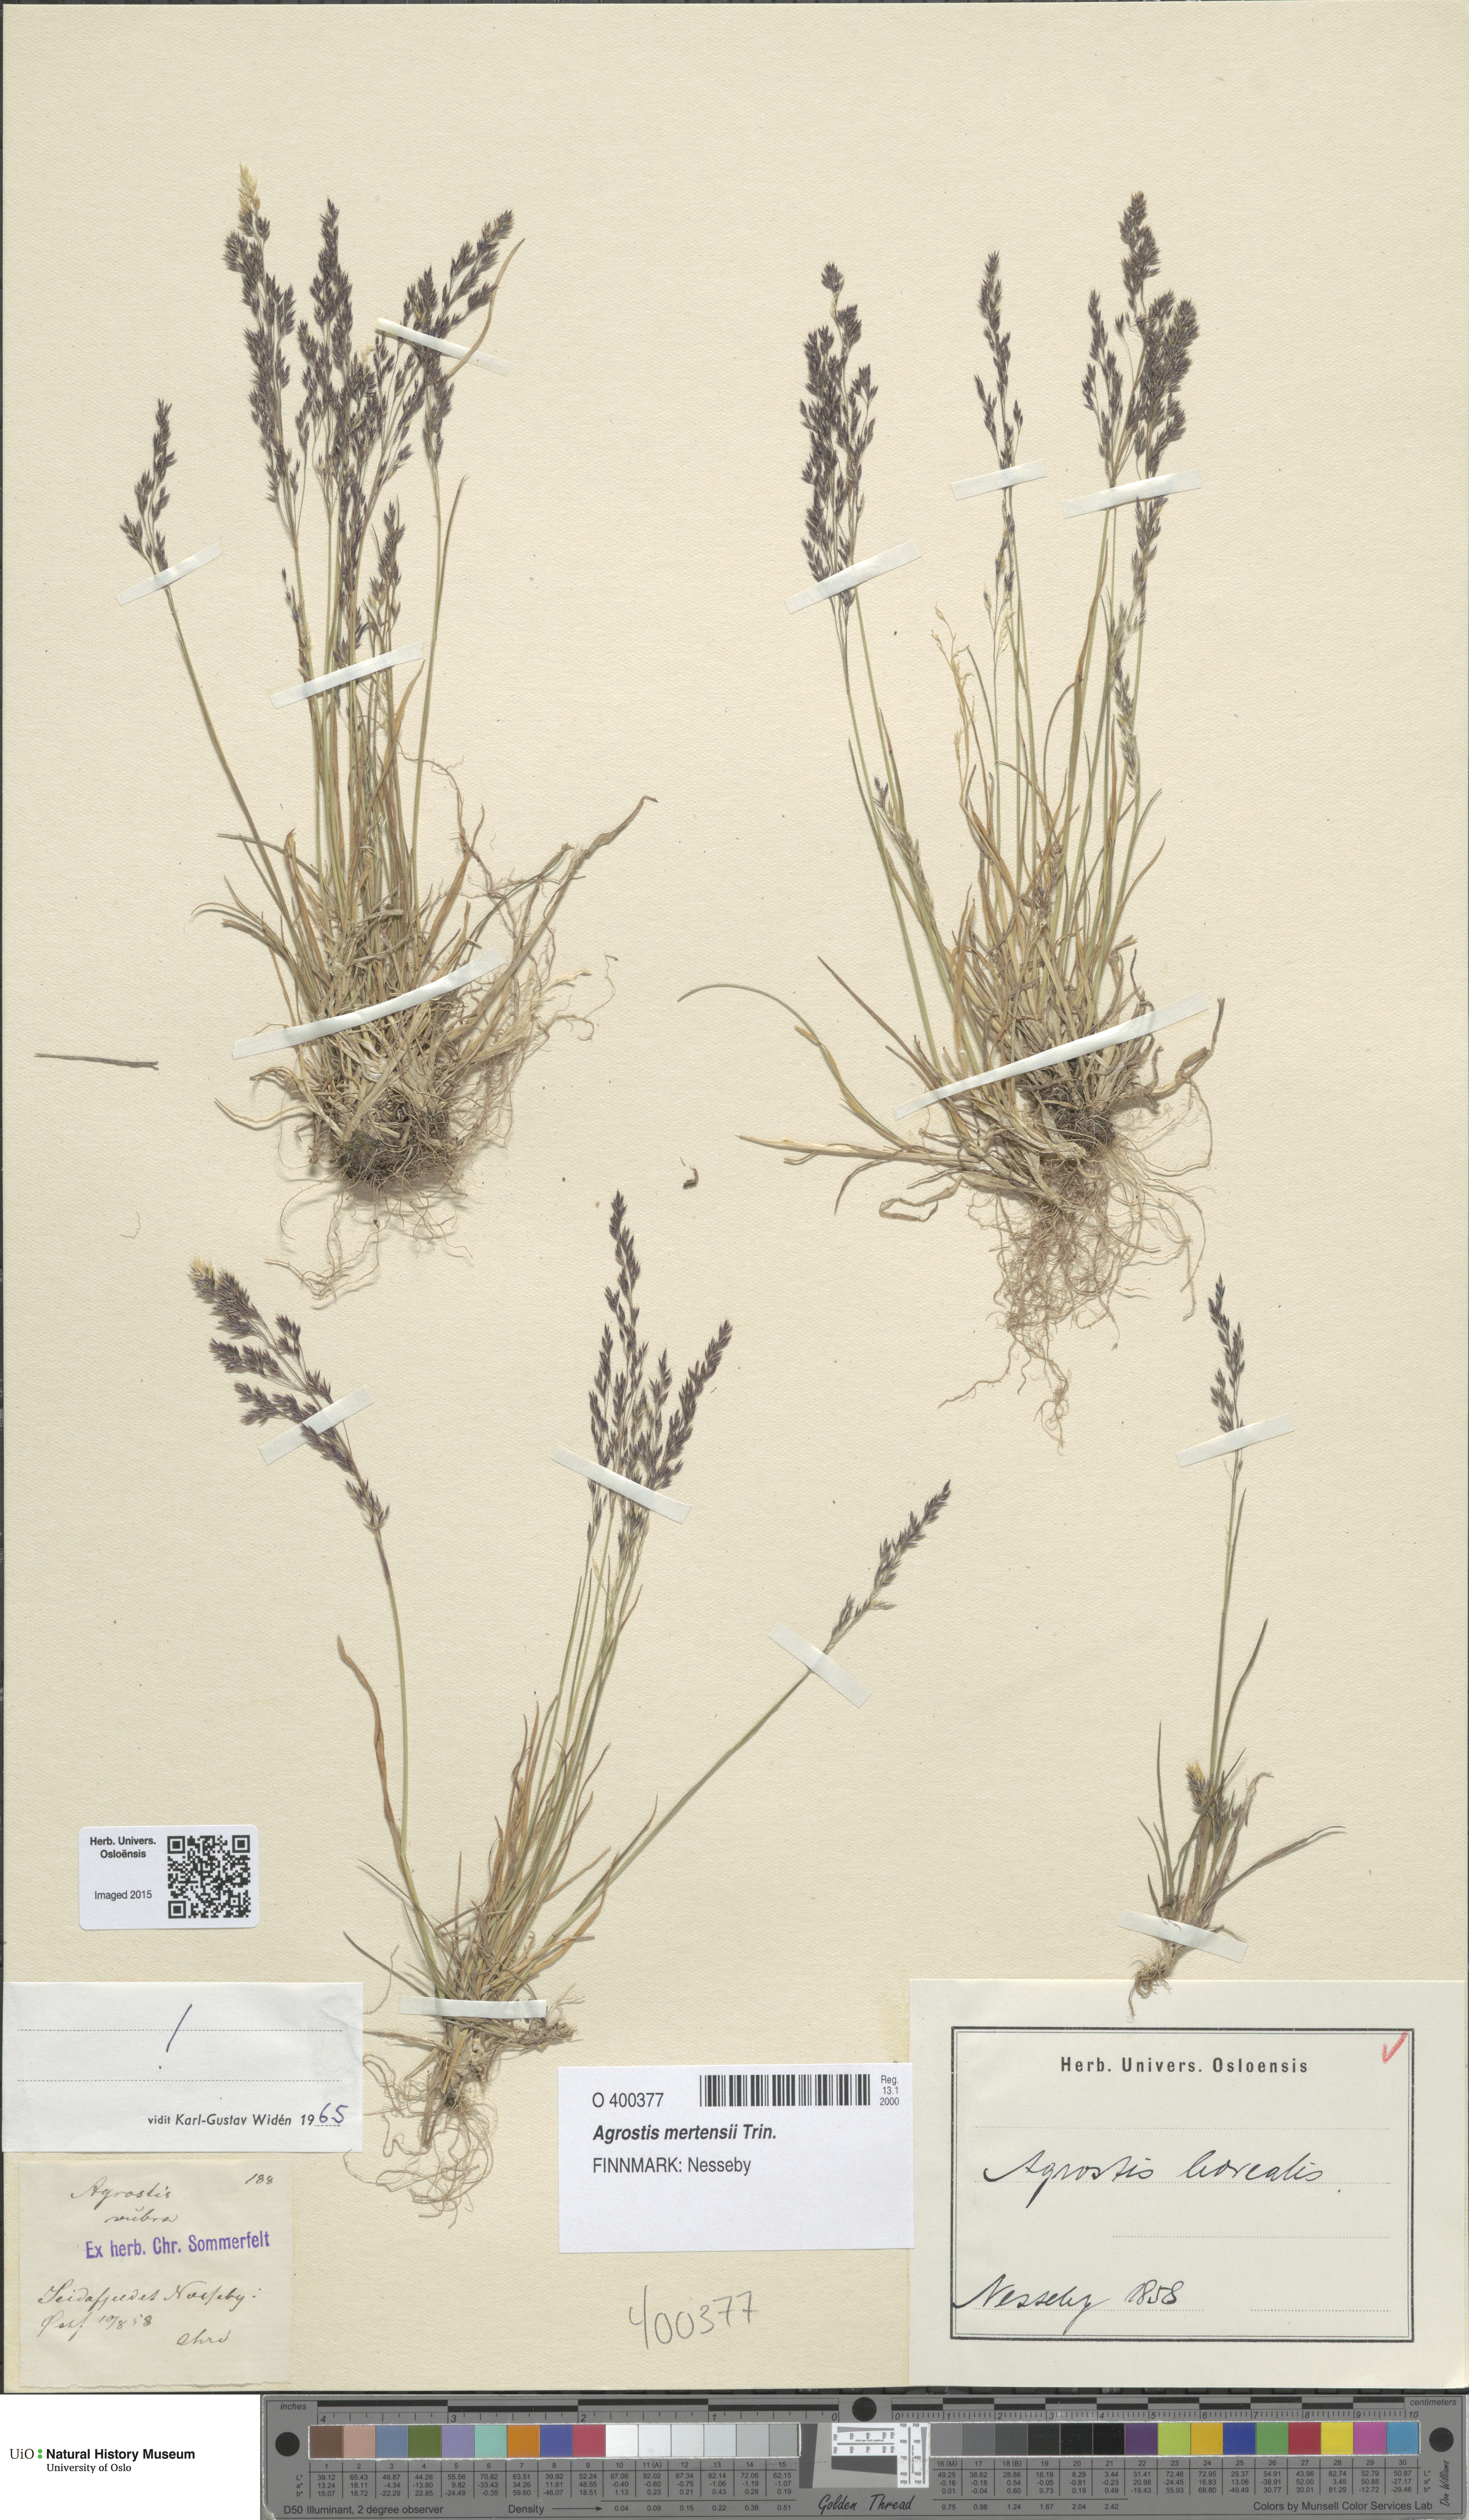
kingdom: Plantae
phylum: Tracheophyta
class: Liliopsida
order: Poales
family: Poaceae
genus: Agrostis
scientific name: Agrostis mertensii
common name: Northern bent
